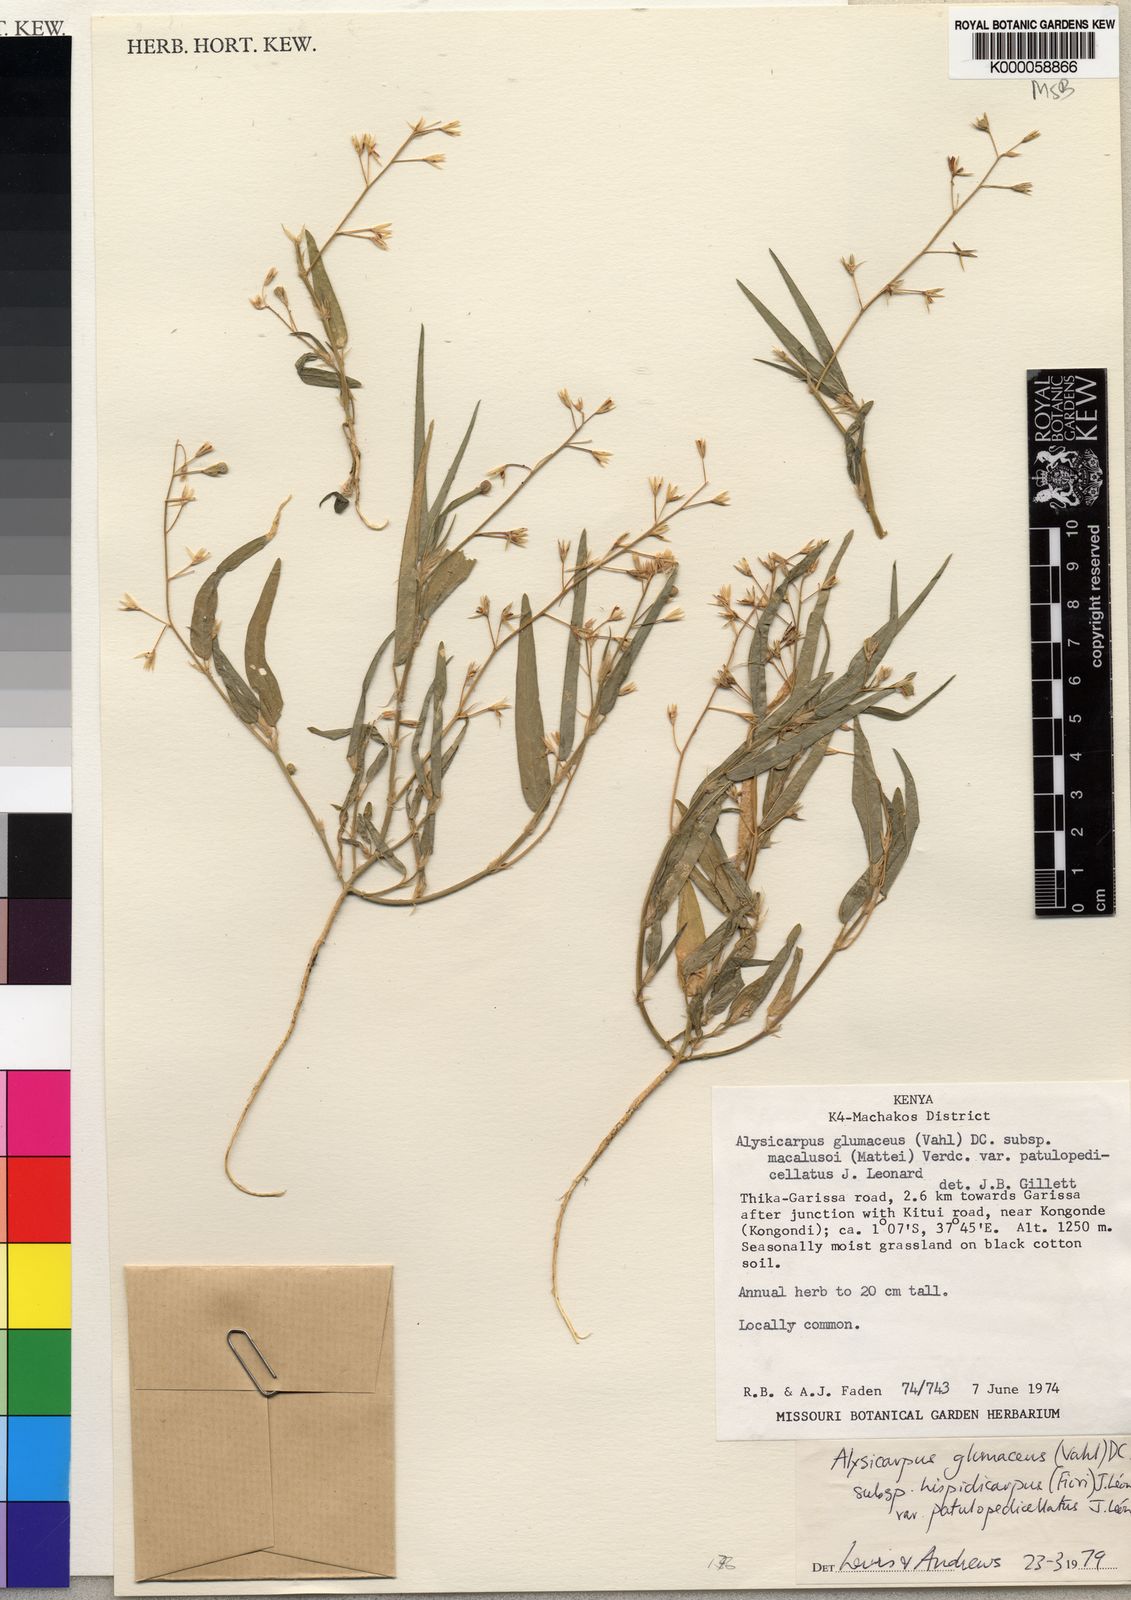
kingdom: Plantae
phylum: Tracheophyta
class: Magnoliopsida
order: Fabales
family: Fabaceae
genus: Alysicarpus
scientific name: Alysicarpus glumaceus
